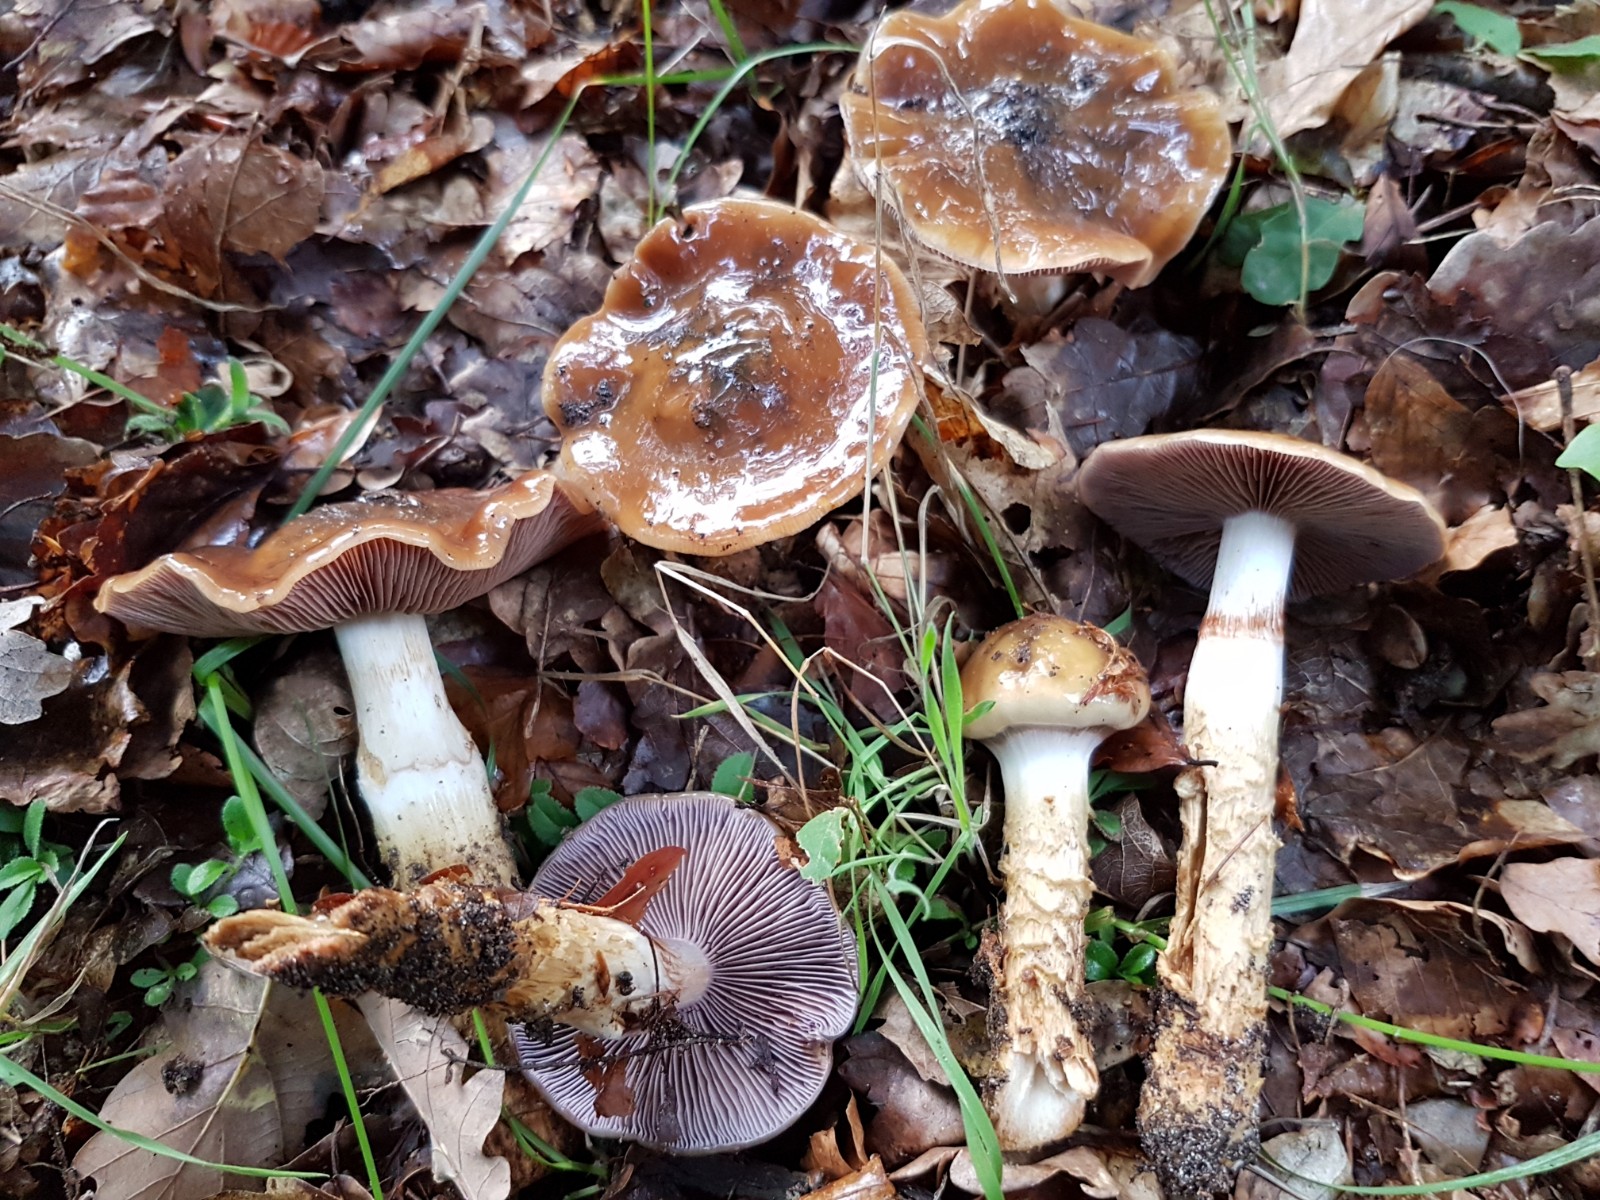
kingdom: Fungi
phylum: Basidiomycota
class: Agaricomycetes
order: Agaricales
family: Cortinariaceae
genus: Cortinarius
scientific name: Cortinarius trivialis
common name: brunslimet slørhat
